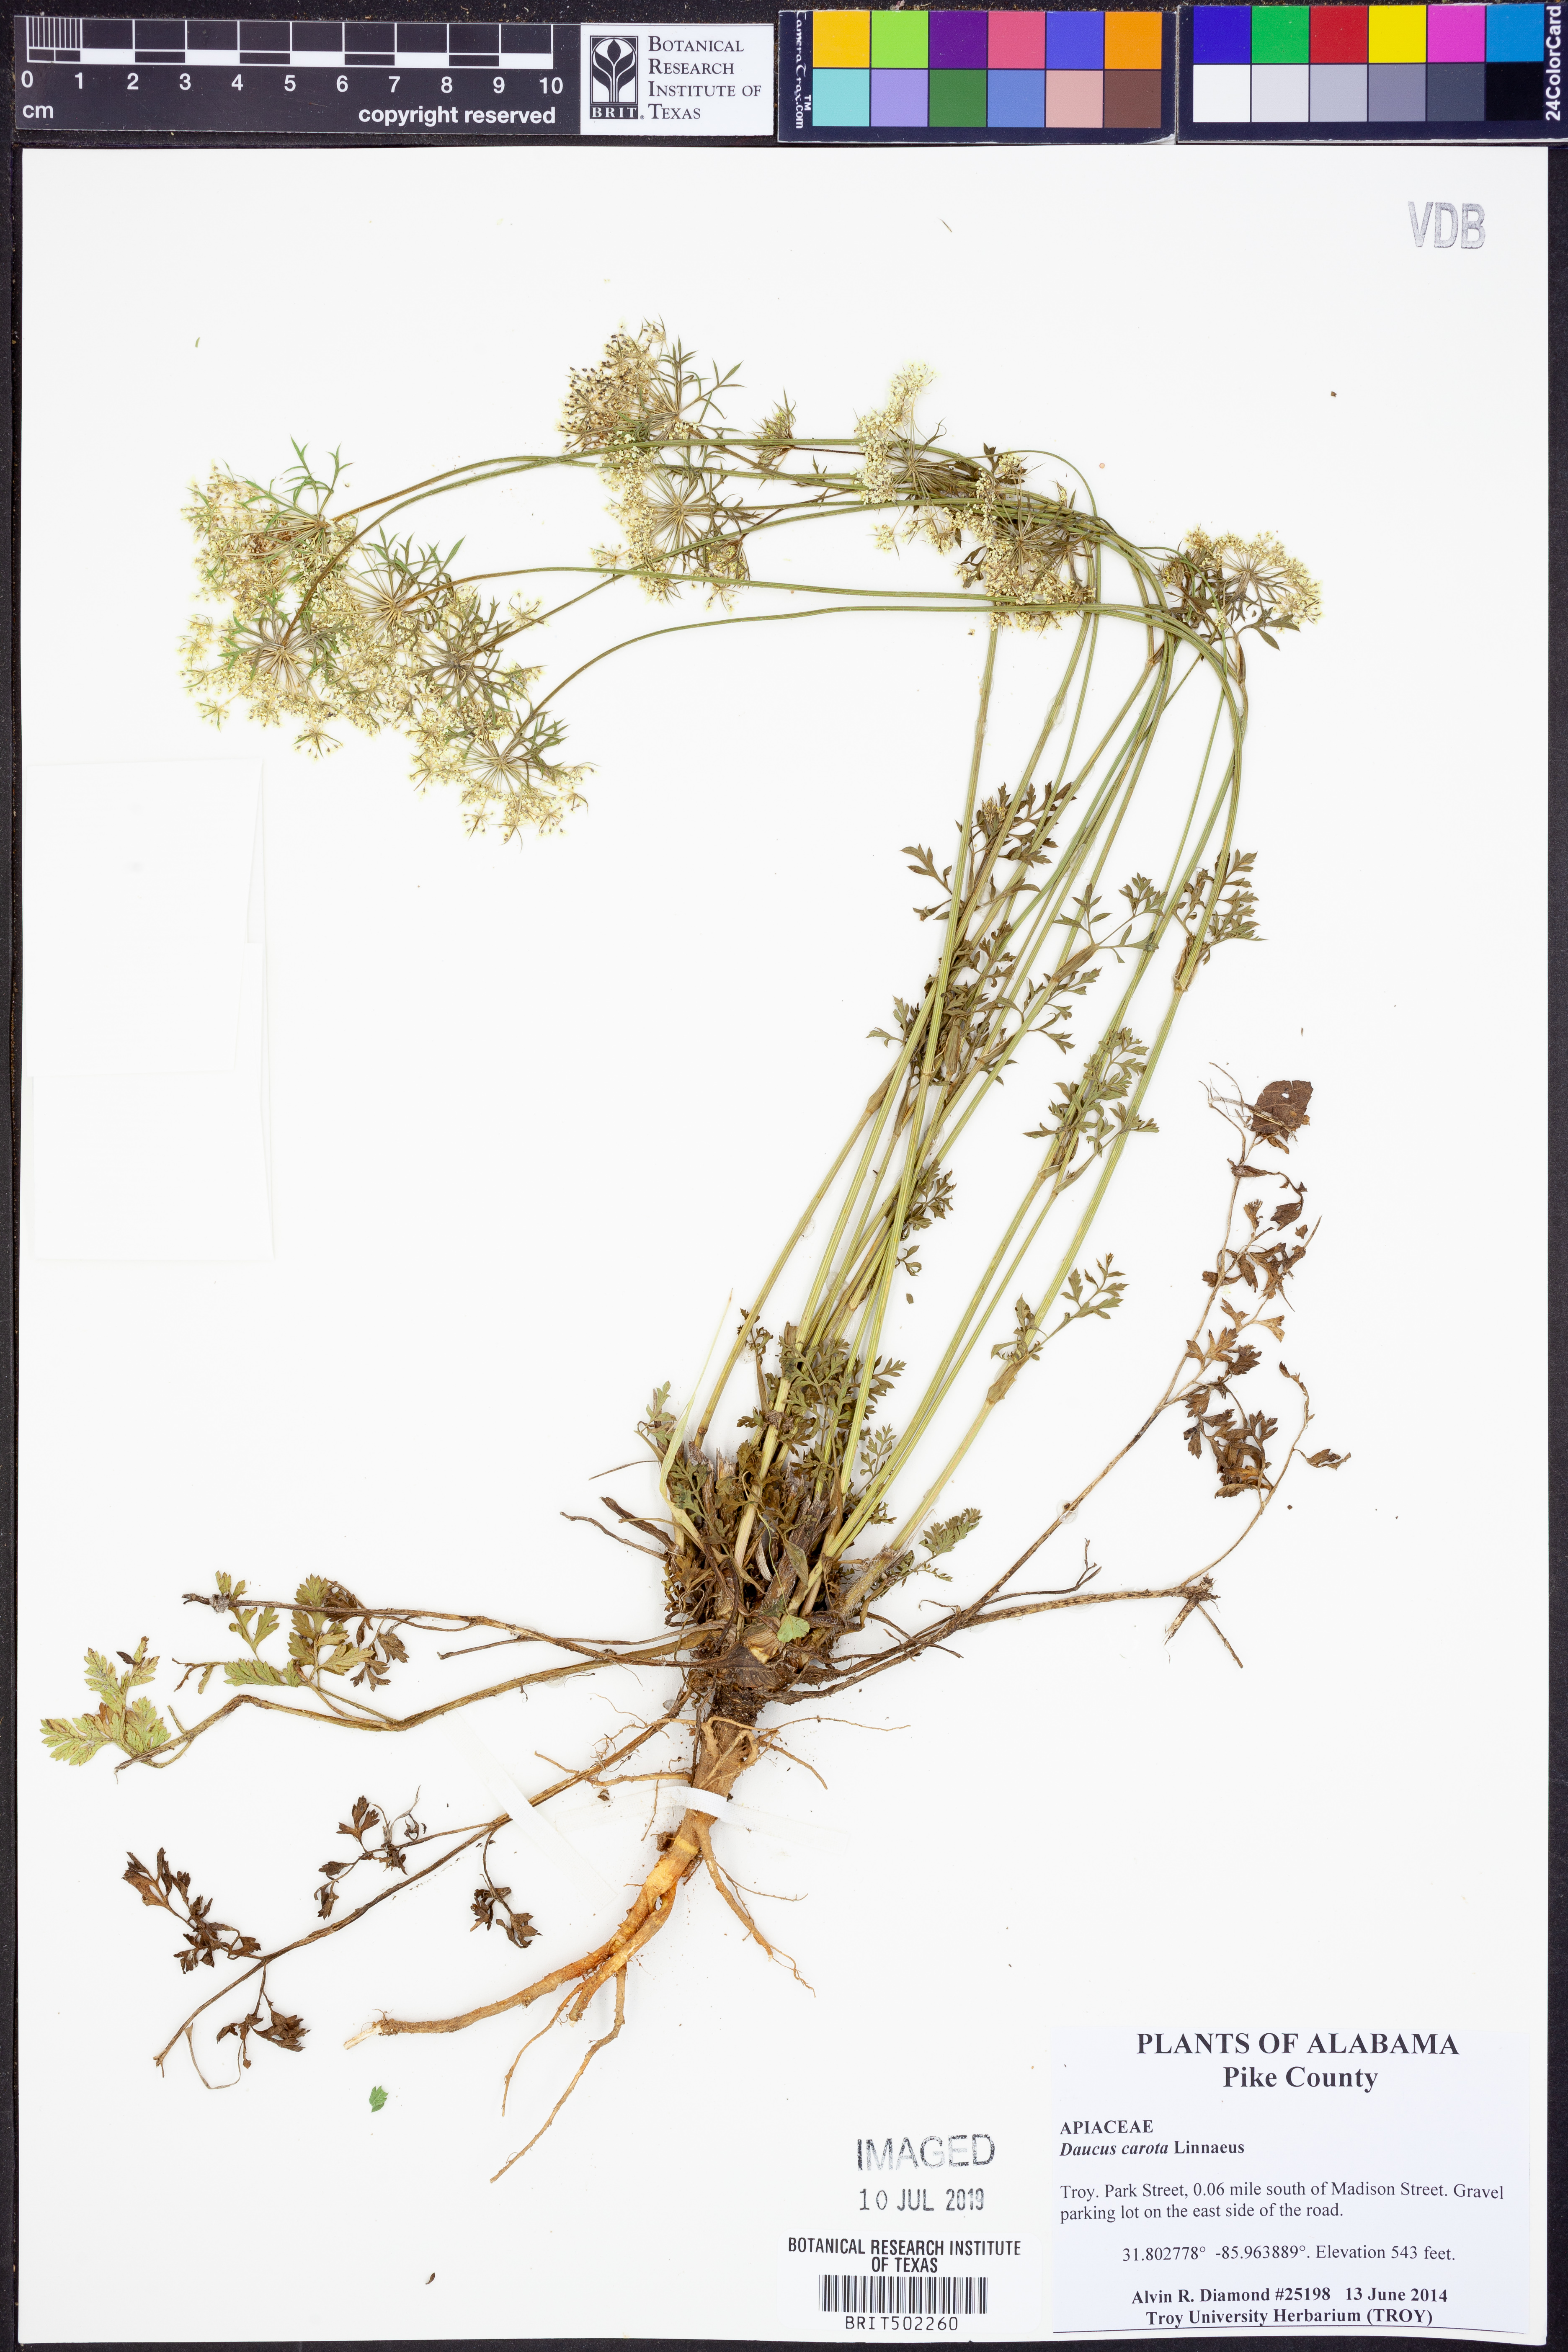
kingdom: Plantae
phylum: Tracheophyta
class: Magnoliopsida
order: Apiales
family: Apiaceae
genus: Daucus
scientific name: Daucus carota
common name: Wild carrot
